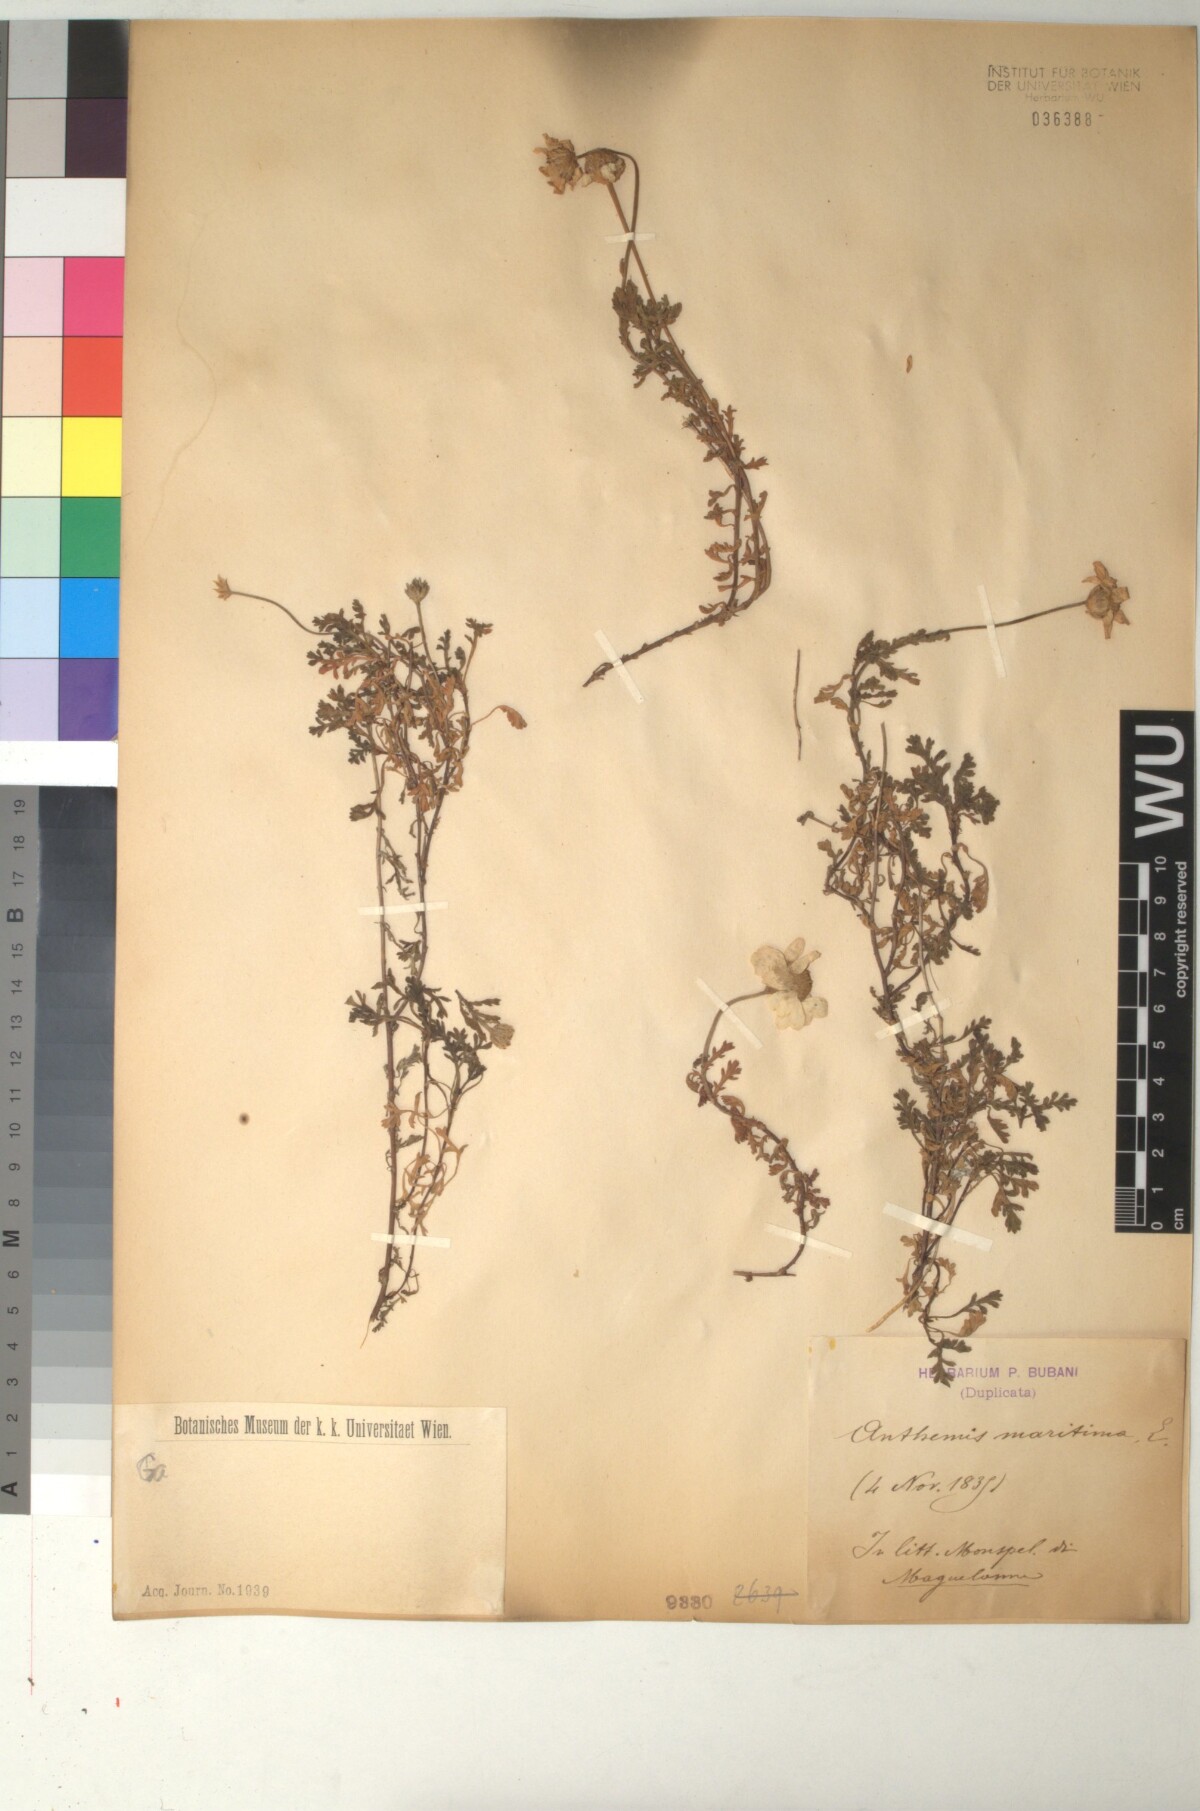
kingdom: Plantae
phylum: Tracheophyta
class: Magnoliopsida
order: Asterales
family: Asteraceae
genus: Anthemis
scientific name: Anthemis maritima
